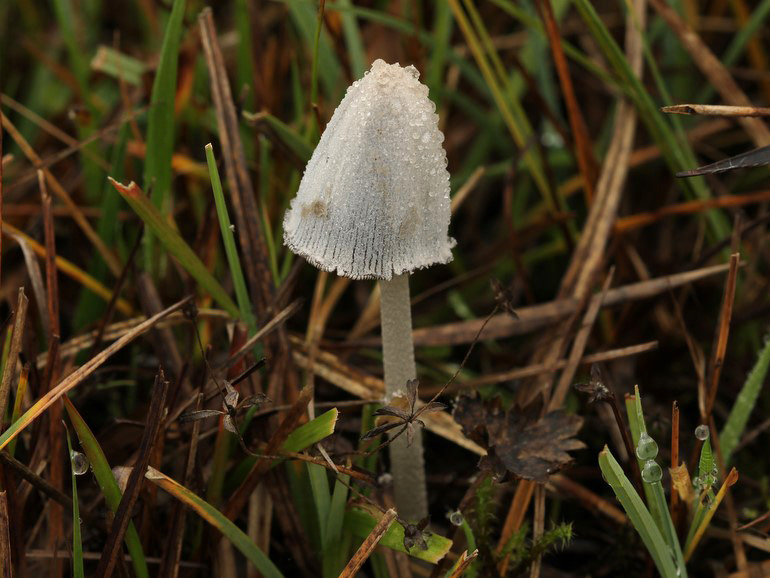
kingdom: Fungi
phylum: Basidiomycota
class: Agaricomycetes
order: Agaricales
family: Psathyrellaceae
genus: Coprinopsis
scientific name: Coprinopsis semitalis
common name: gråpudret blækhat
